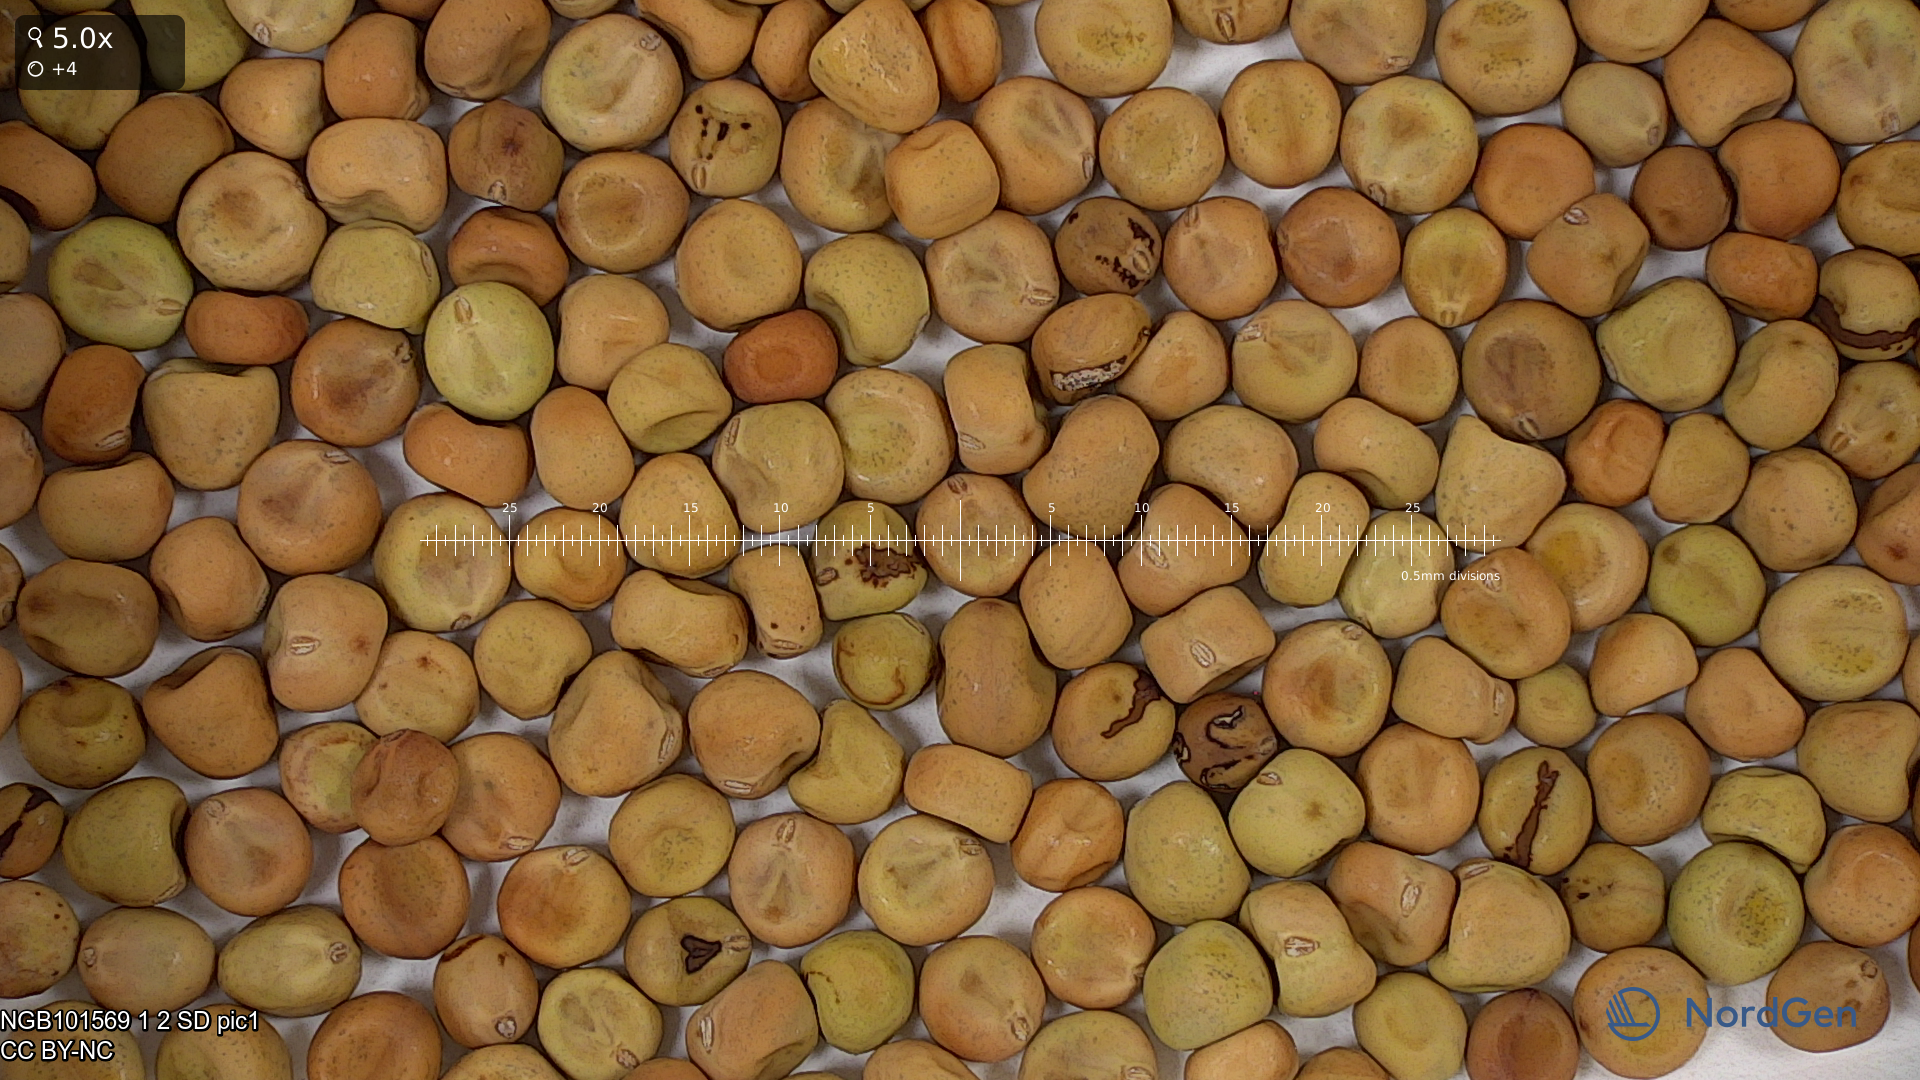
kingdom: Plantae
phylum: Tracheophyta
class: Magnoliopsida
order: Fabales
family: Fabaceae
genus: Lathyrus
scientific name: Lathyrus oleraceus
